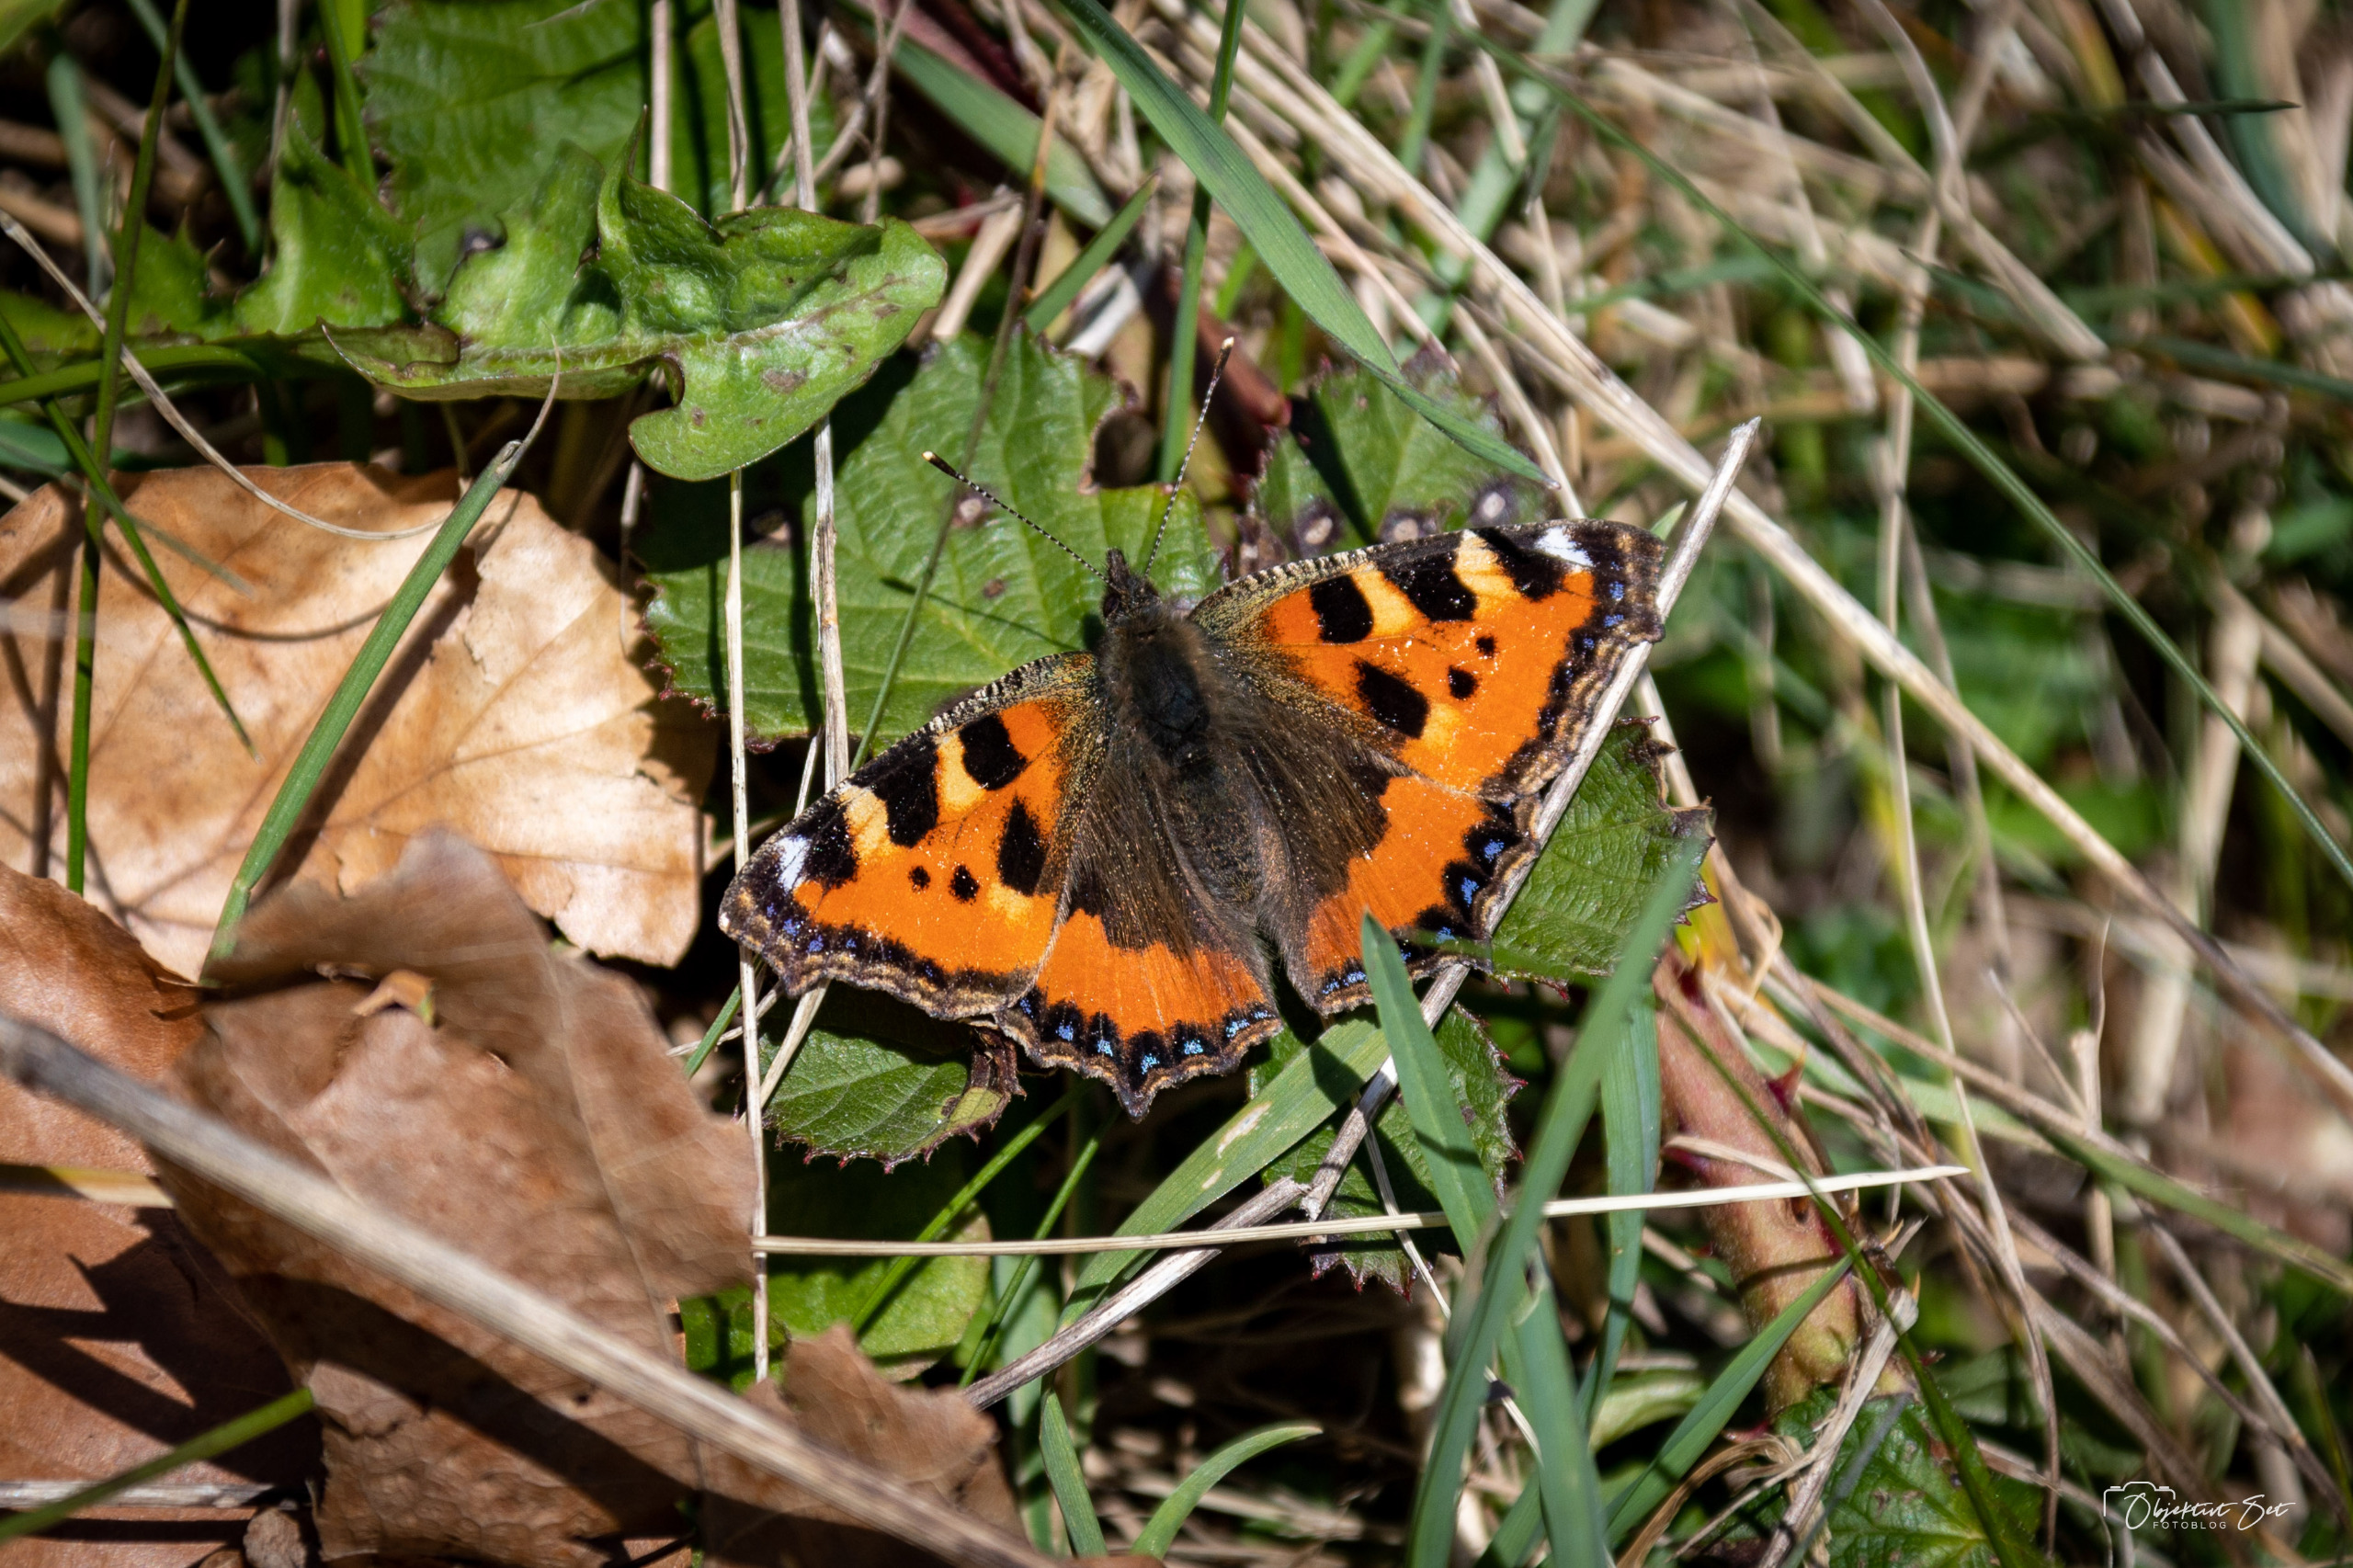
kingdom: Animalia
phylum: Arthropoda
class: Insecta
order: Lepidoptera
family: Nymphalidae
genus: Aglais
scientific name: Aglais urticae
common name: Nældens takvinge
